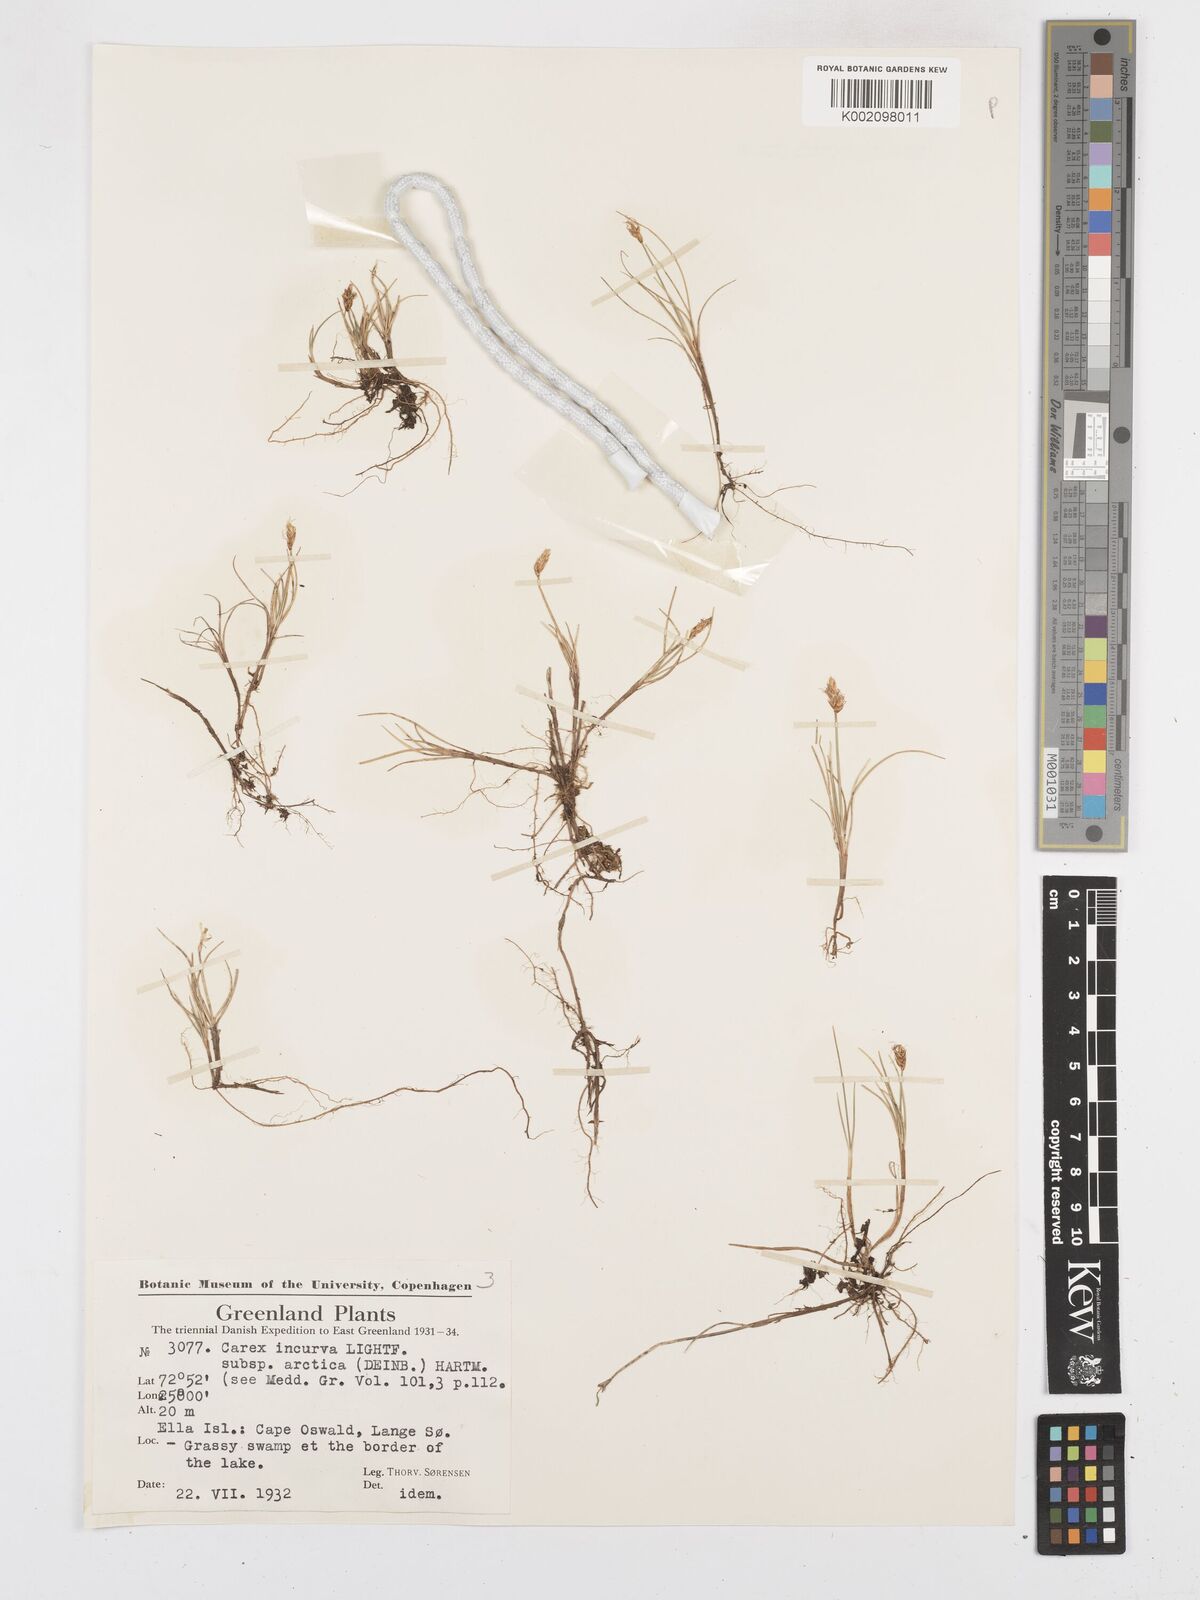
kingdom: Plantae
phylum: Tracheophyta
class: Liliopsida
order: Poales
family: Cyperaceae
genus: Carex
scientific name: Carex maritima
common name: Curved sedge
